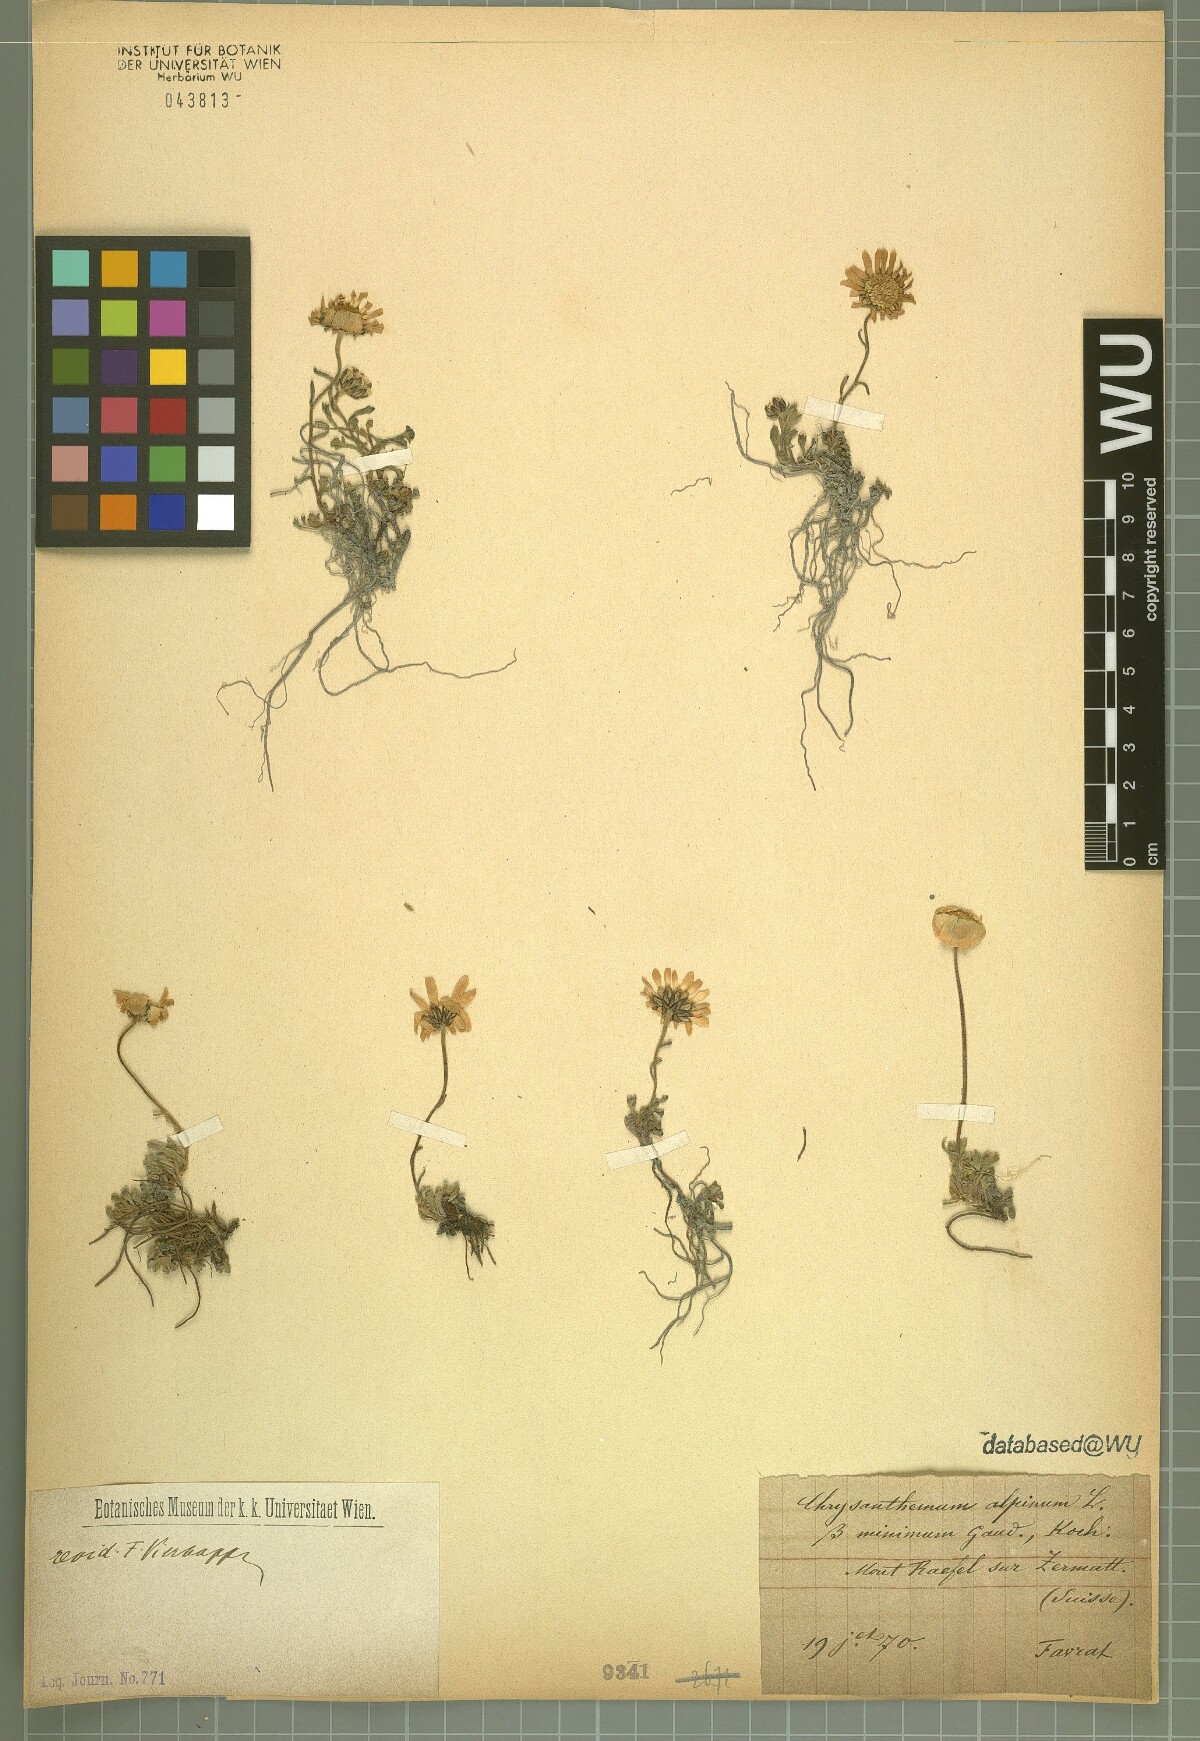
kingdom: Plantae
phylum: Tracheophyta
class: Magnoliopsida
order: Asterales
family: Asteraceae
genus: Leucanthemopsis
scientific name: Leucanthemopsis alpina
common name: Alpine moon daisy
